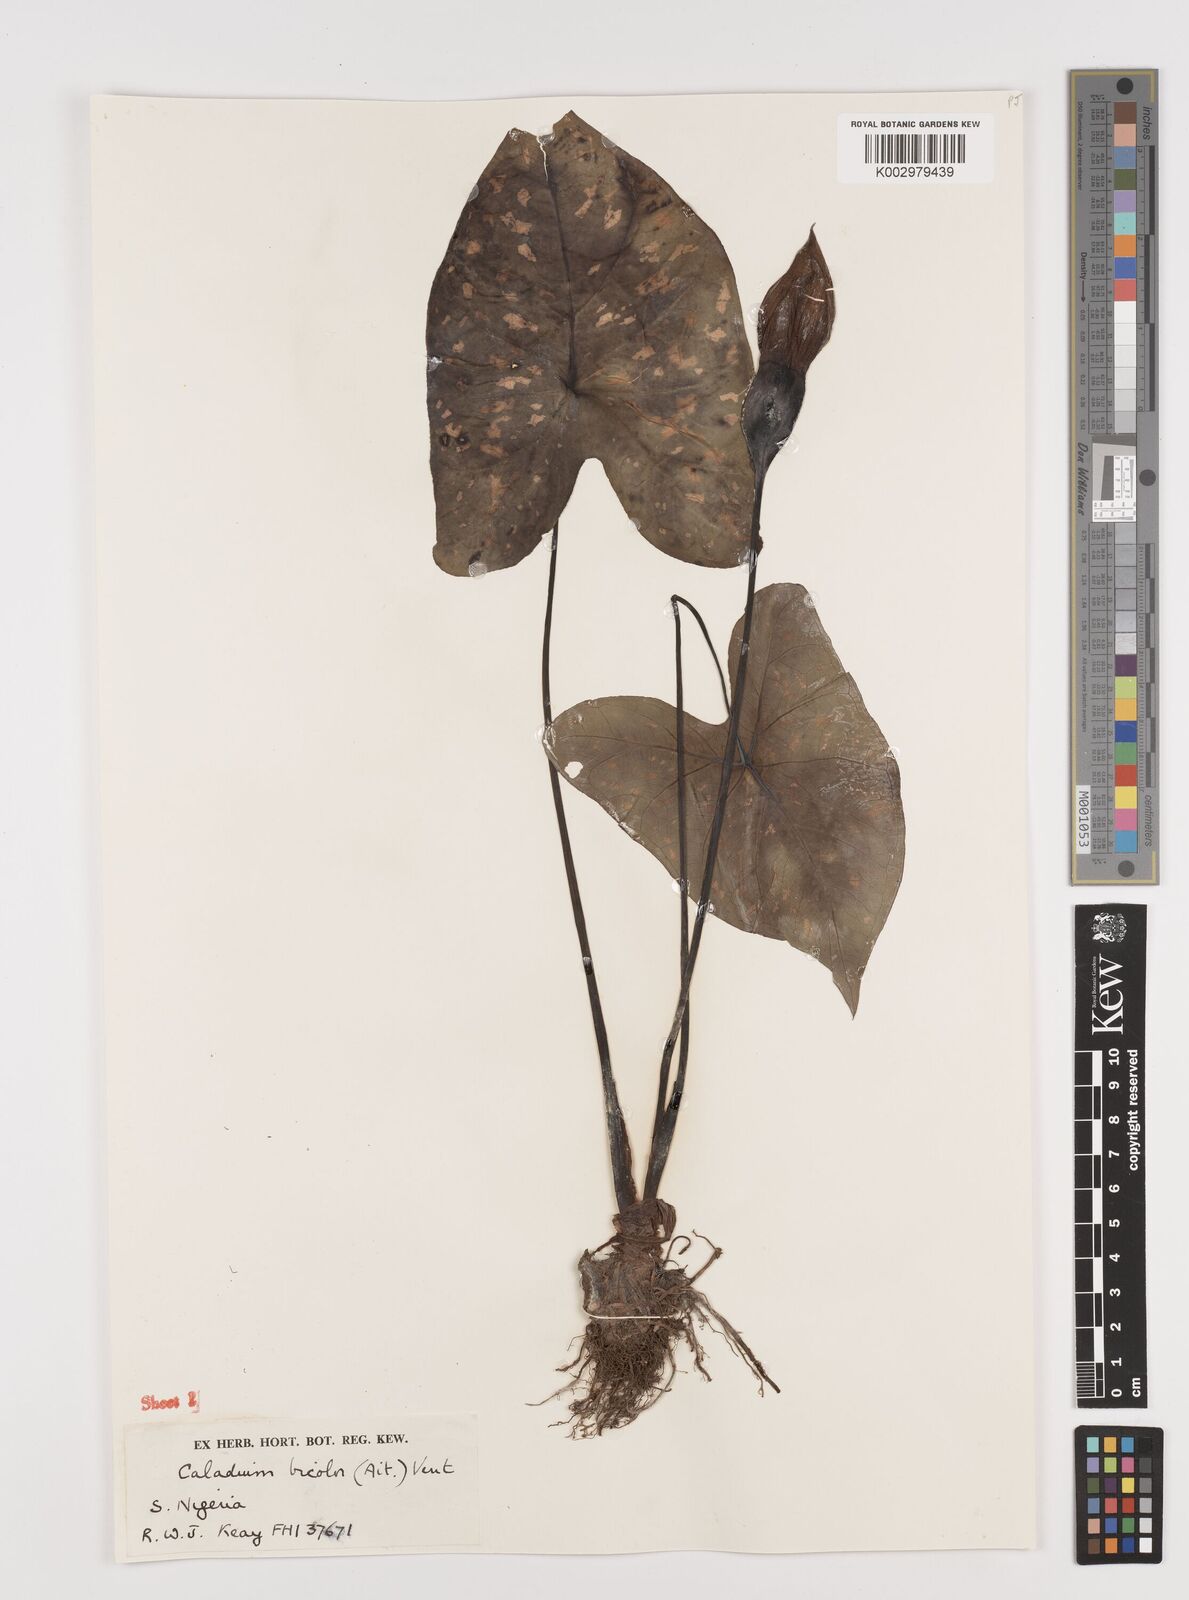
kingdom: Plantae
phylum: Tracheophyta
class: Liliopsida
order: Alismatales
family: Araceae
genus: Caladium
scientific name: Caladium bicolor
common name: Artist's pallet
